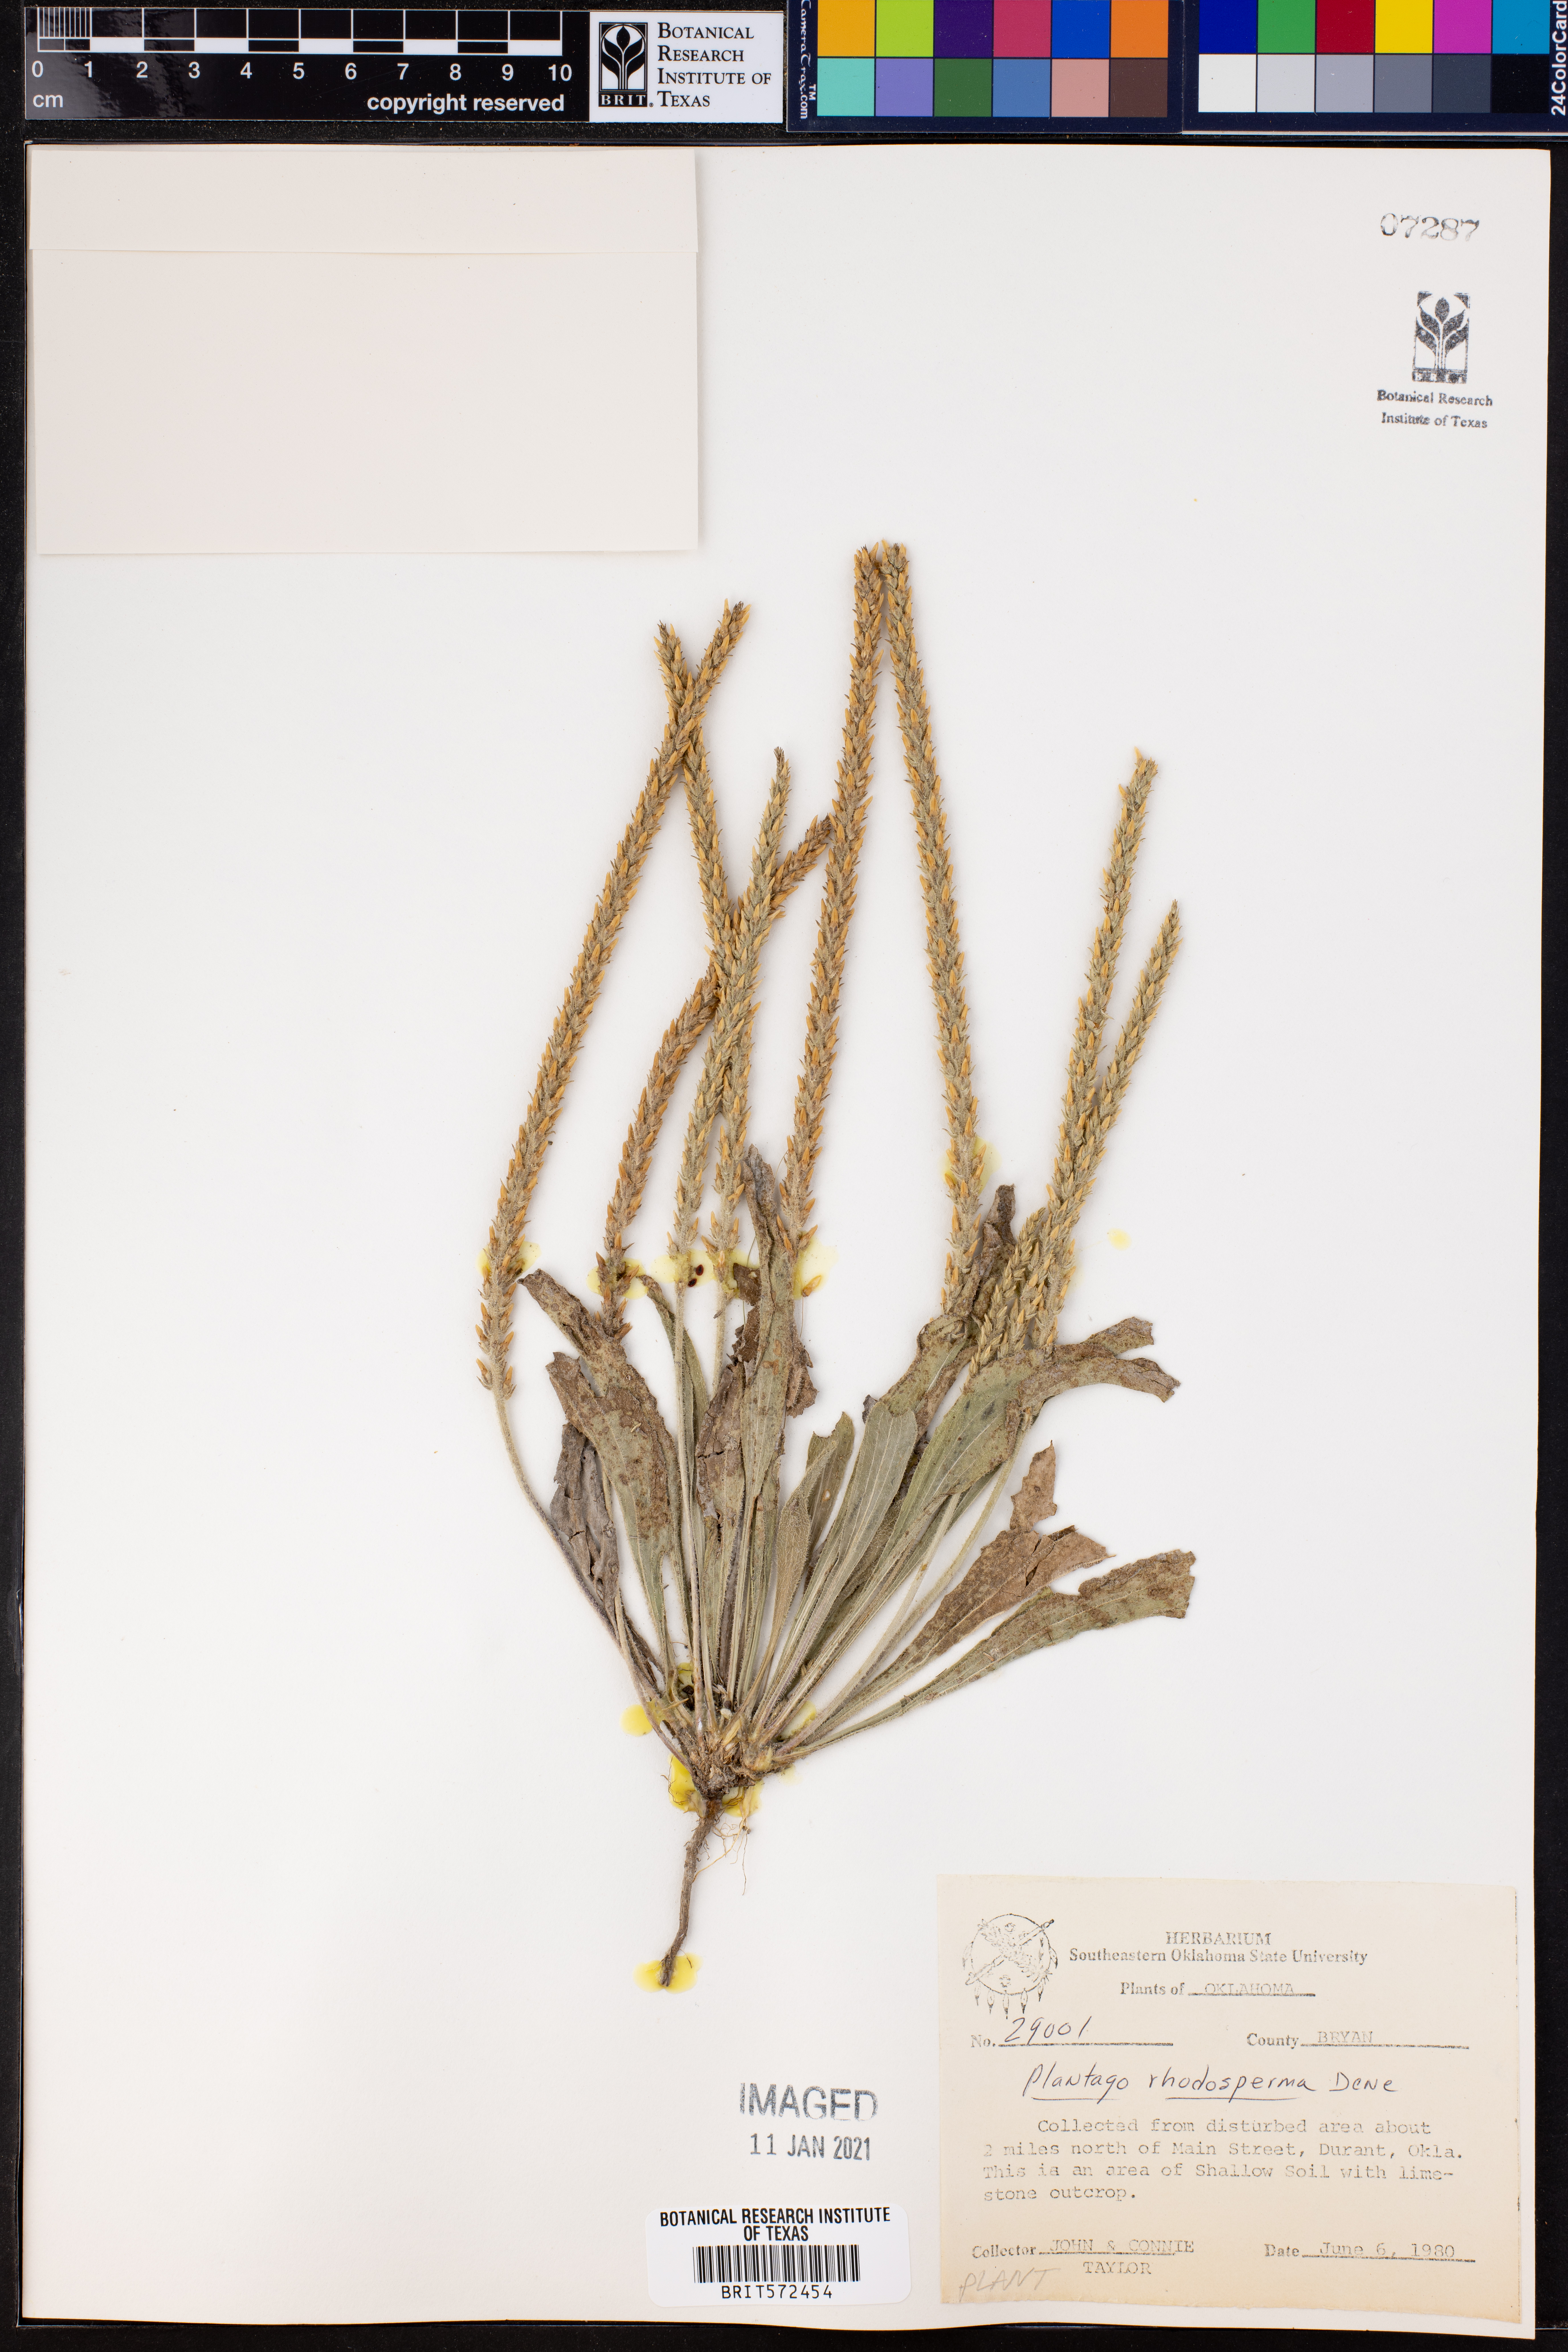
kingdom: Plantae
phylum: Tracheophyta
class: Magnoliopsida
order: Lamiales
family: Plantaginaceae
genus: Plantago
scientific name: Plantago rhodosperma
